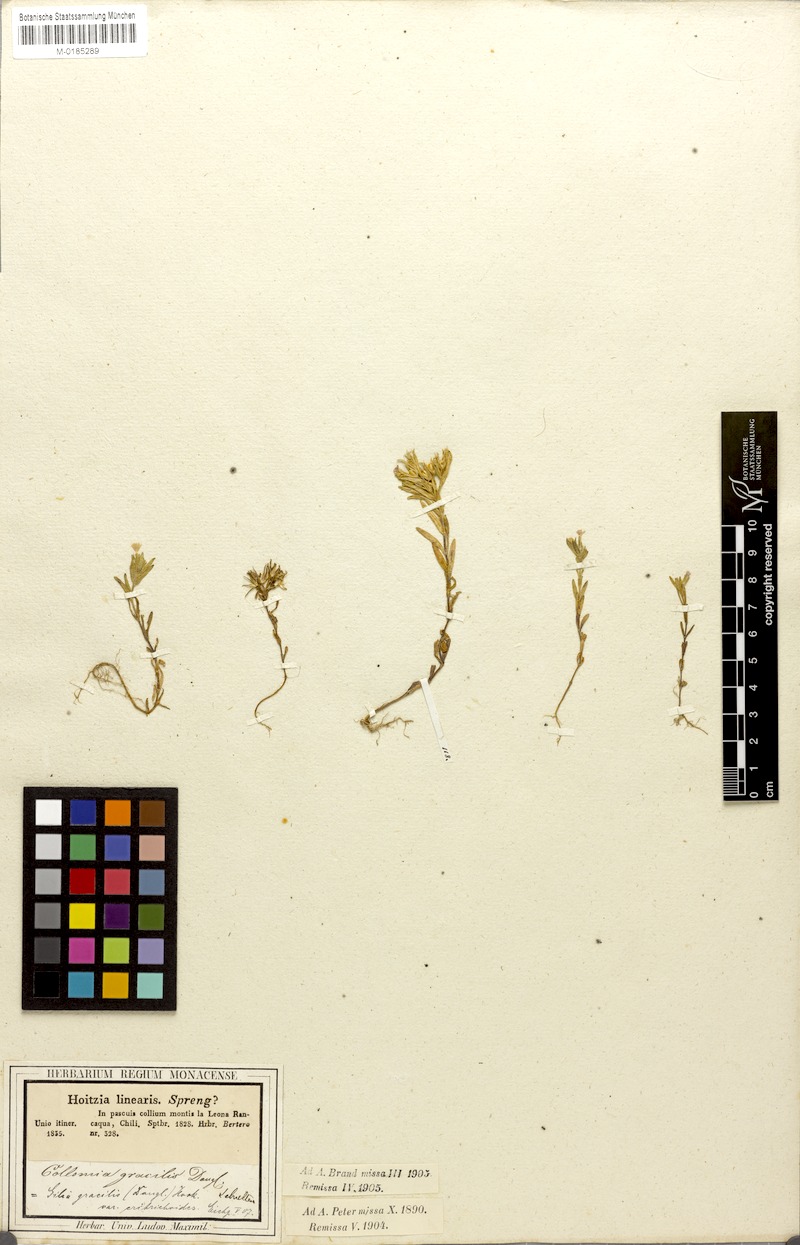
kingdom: Plantae
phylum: Tracheophyta
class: Magnoliopsida
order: Ericales
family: Polemoniaceae
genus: Phlox
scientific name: Phlox gracilis
